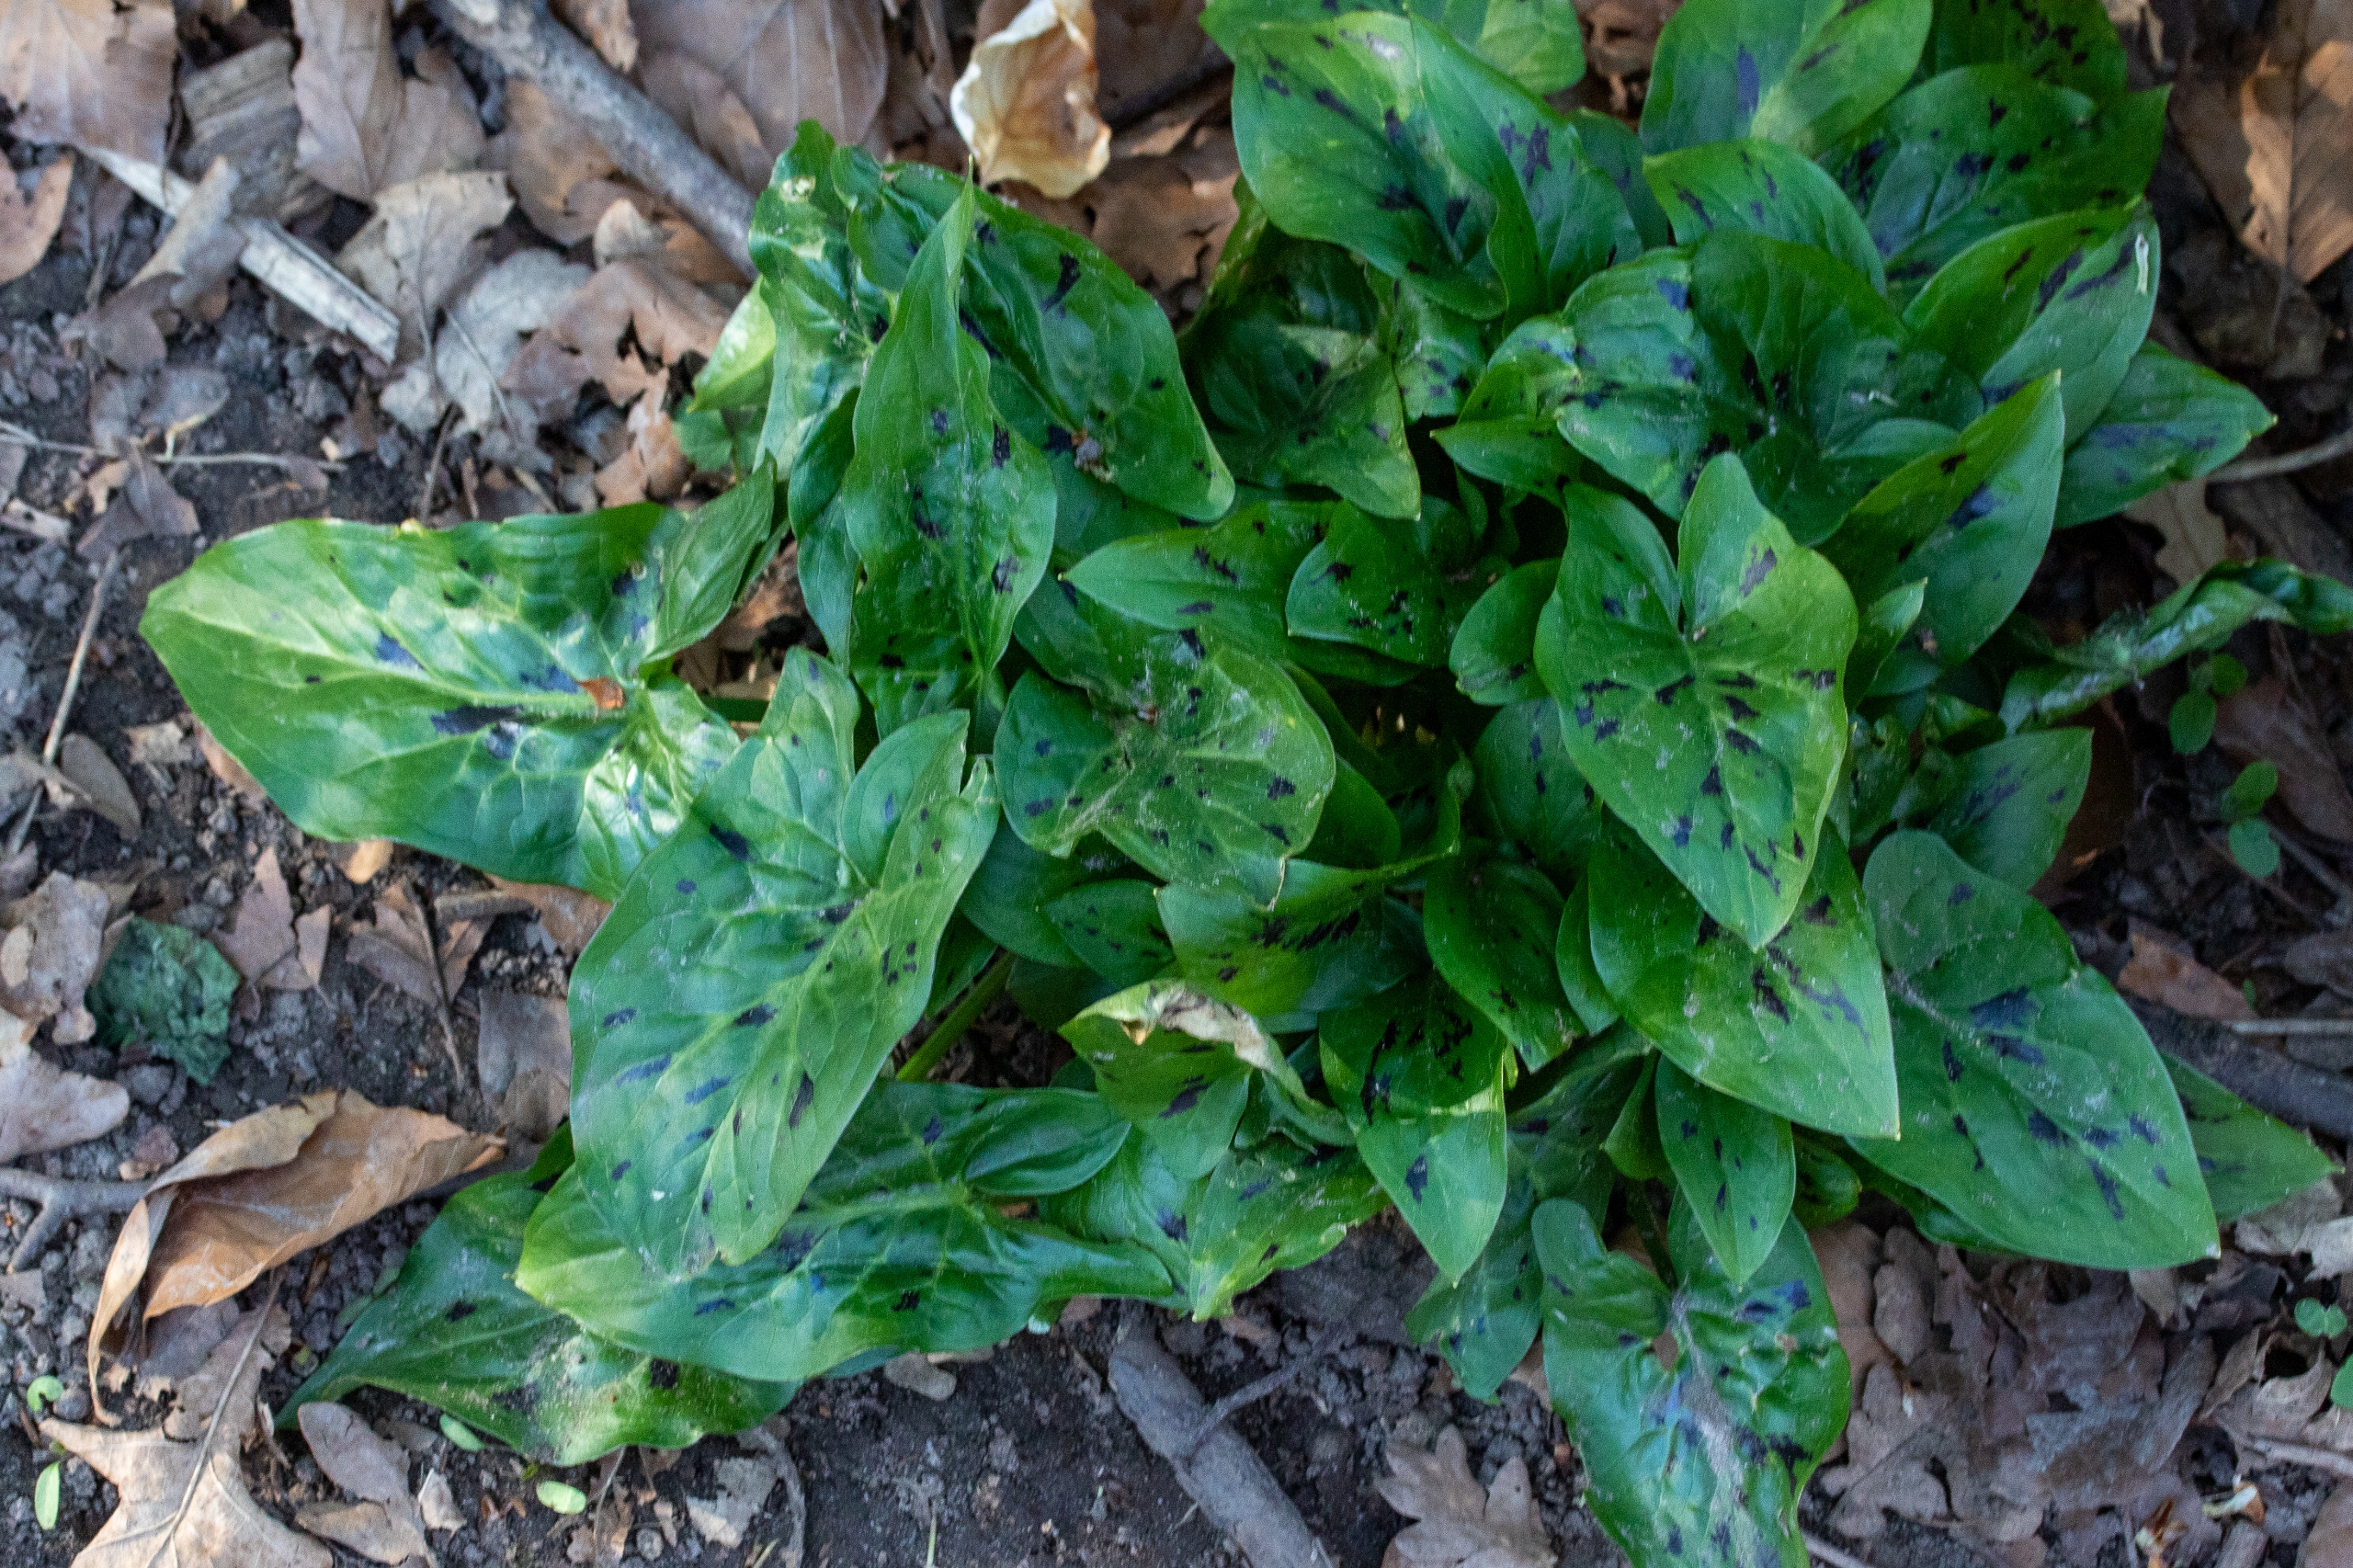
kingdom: Plantae
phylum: Tracheophyta
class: Liliopsida
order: Alismatales
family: Araceae
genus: Arum
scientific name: Arum maculatum
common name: Plettet arum
